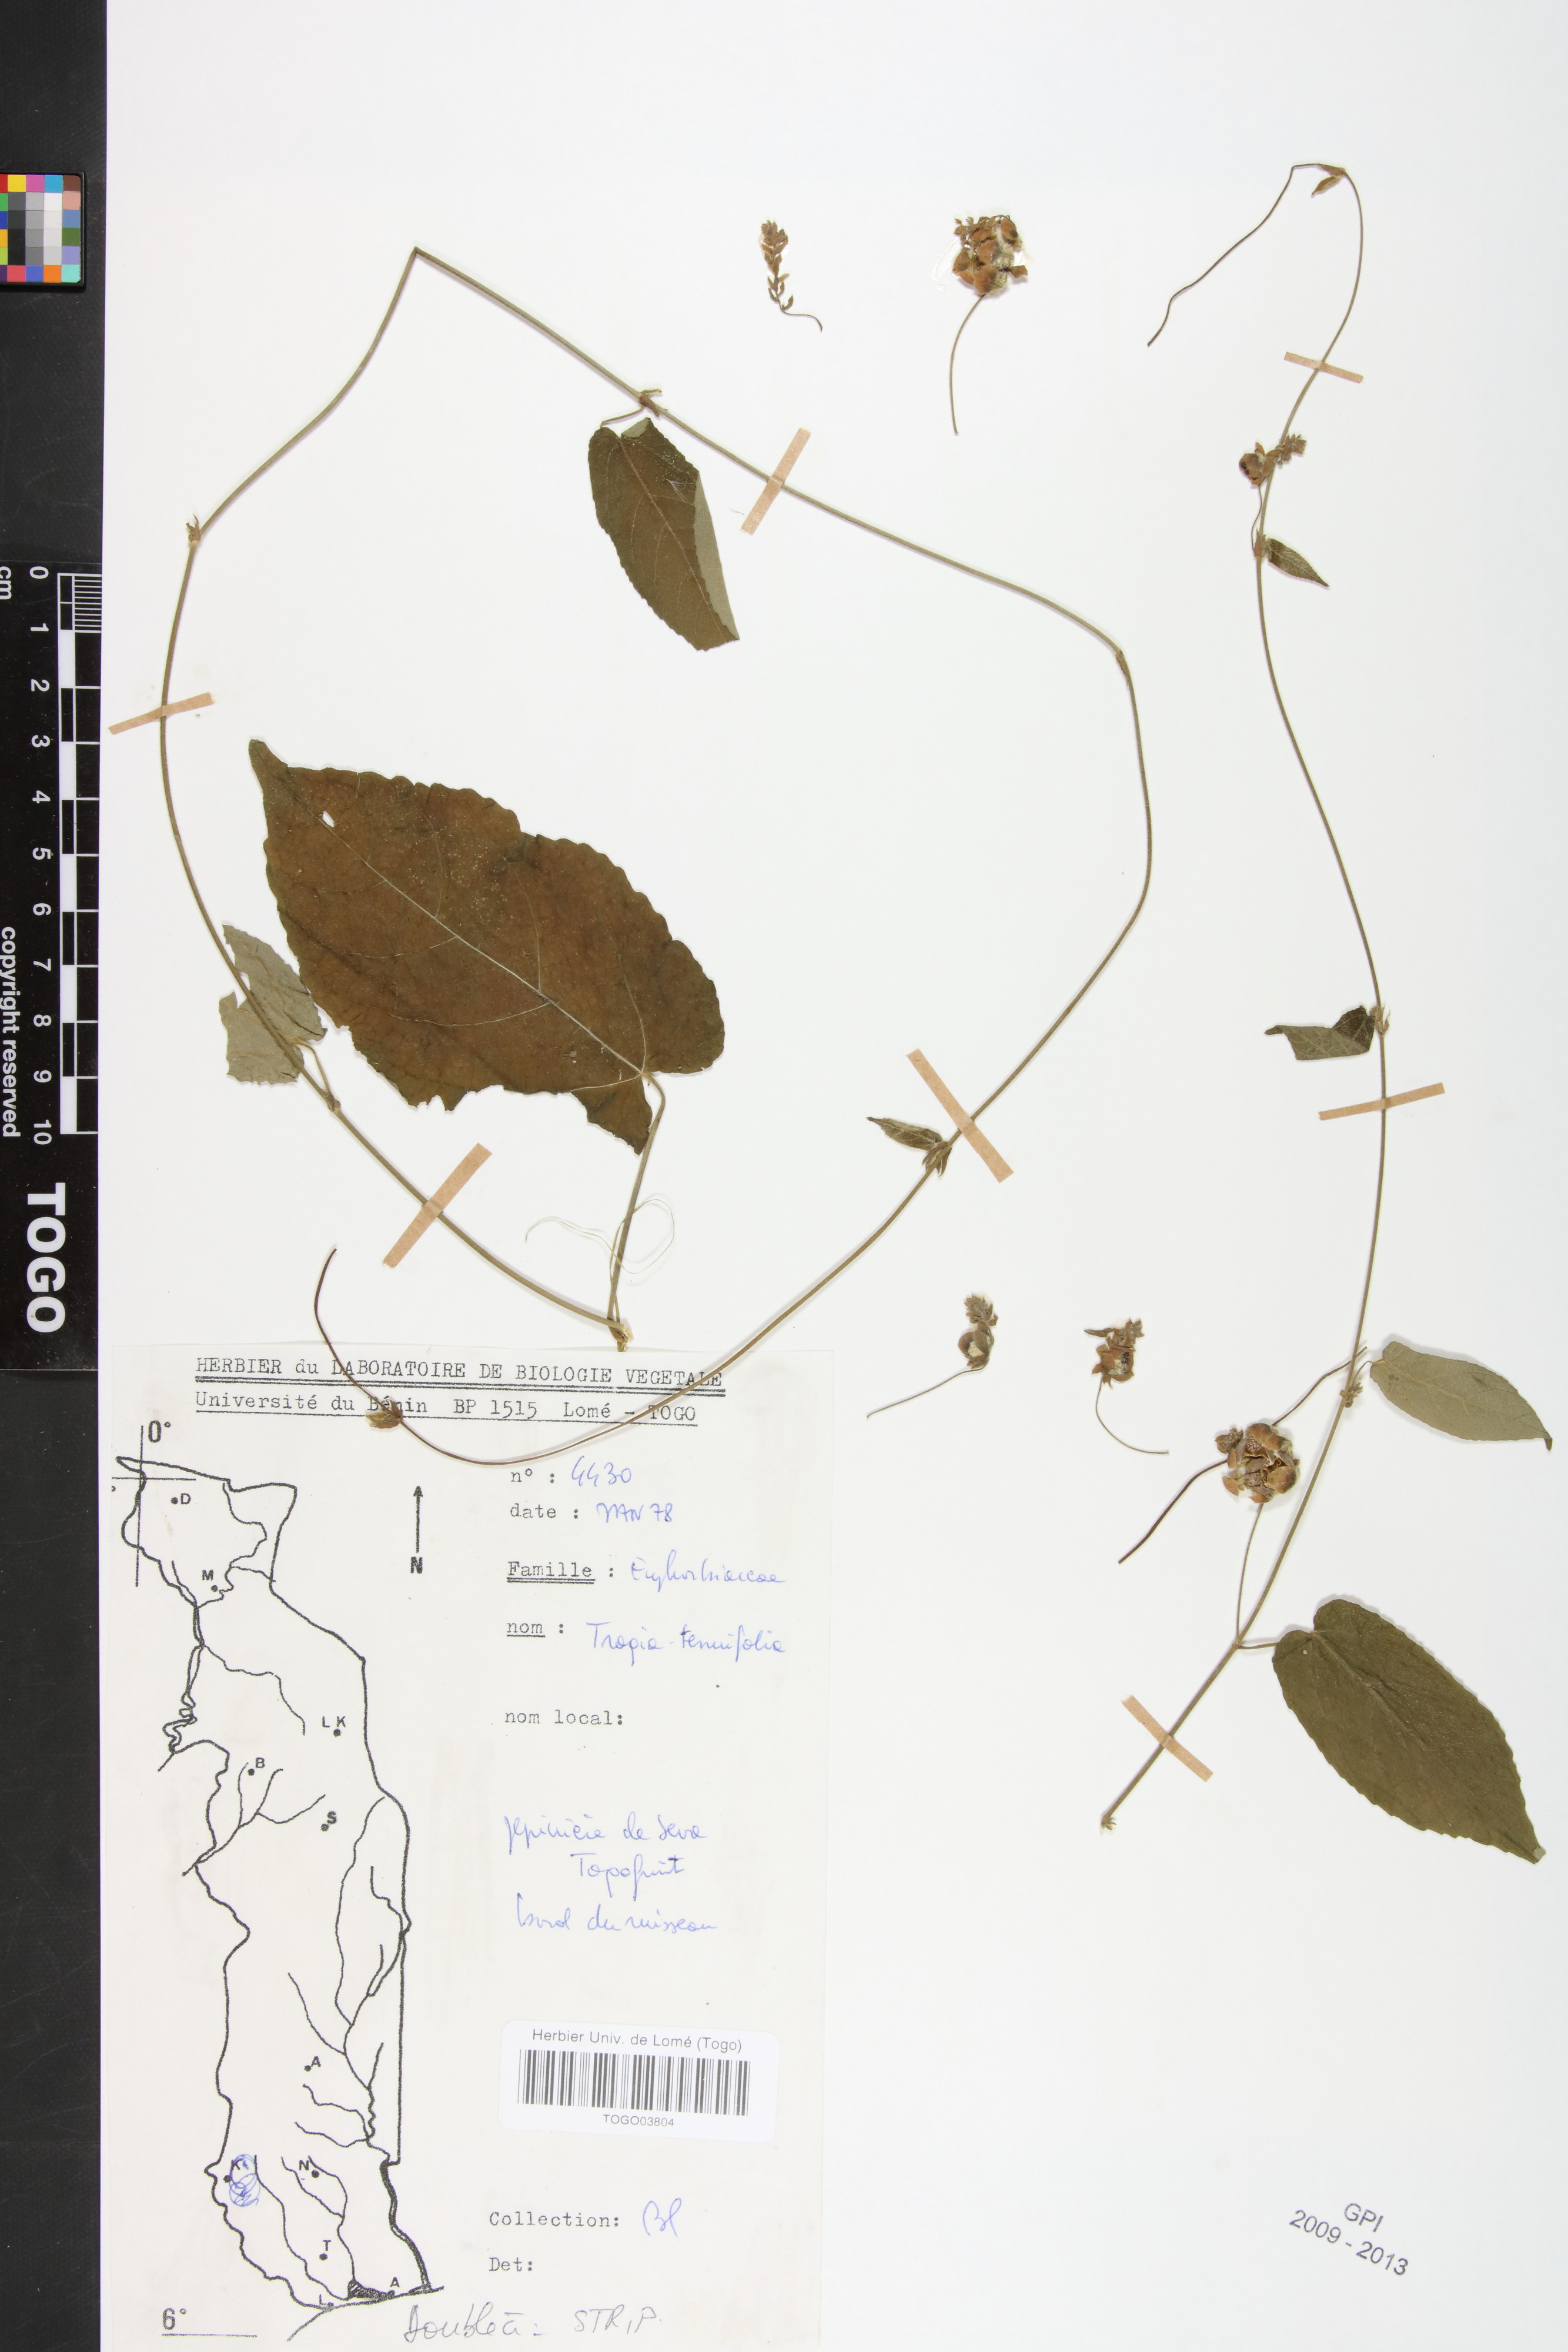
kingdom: Plantae
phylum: Tracheophyta
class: Magnoliopsida
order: Malpighiales
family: Euphorbiaceae
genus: Tragia
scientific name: Tragia tenuifolia
